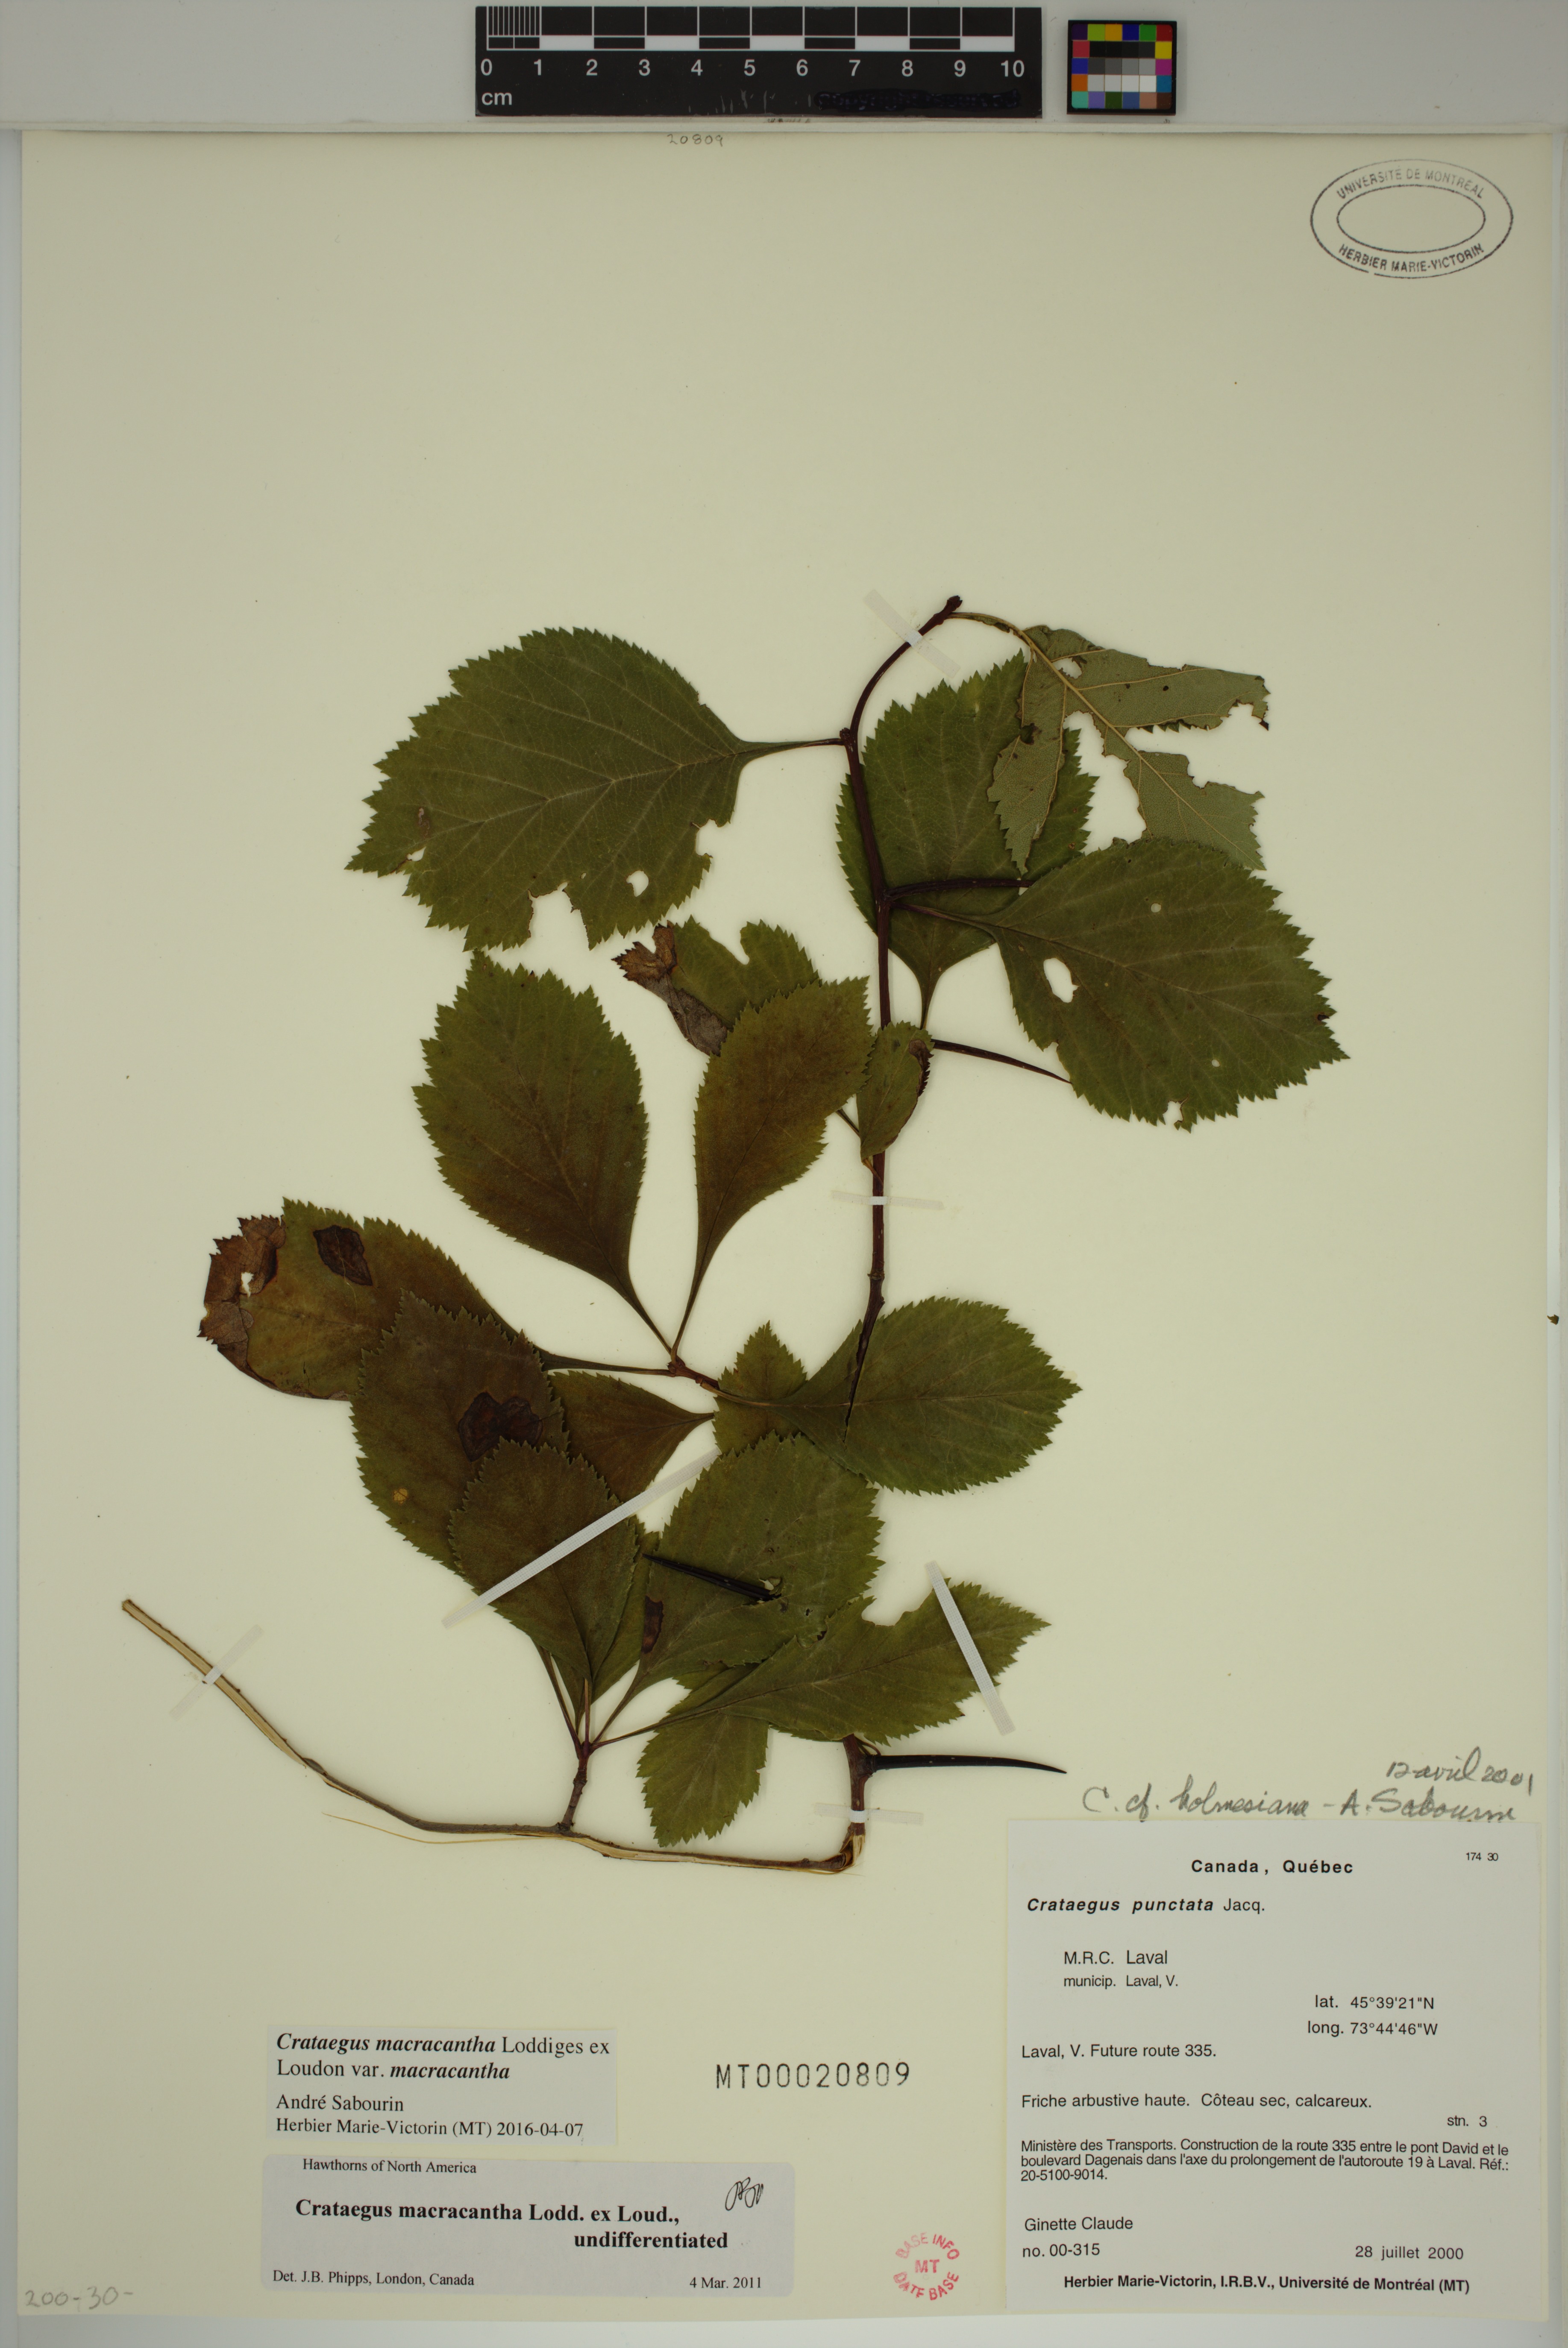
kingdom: Plantae
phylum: Tracheophyta
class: Magnoliopsida
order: Rosales
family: Rosaceae
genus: Crataegus
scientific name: Crataegus macracantha
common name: Large-thorn hawthorn
